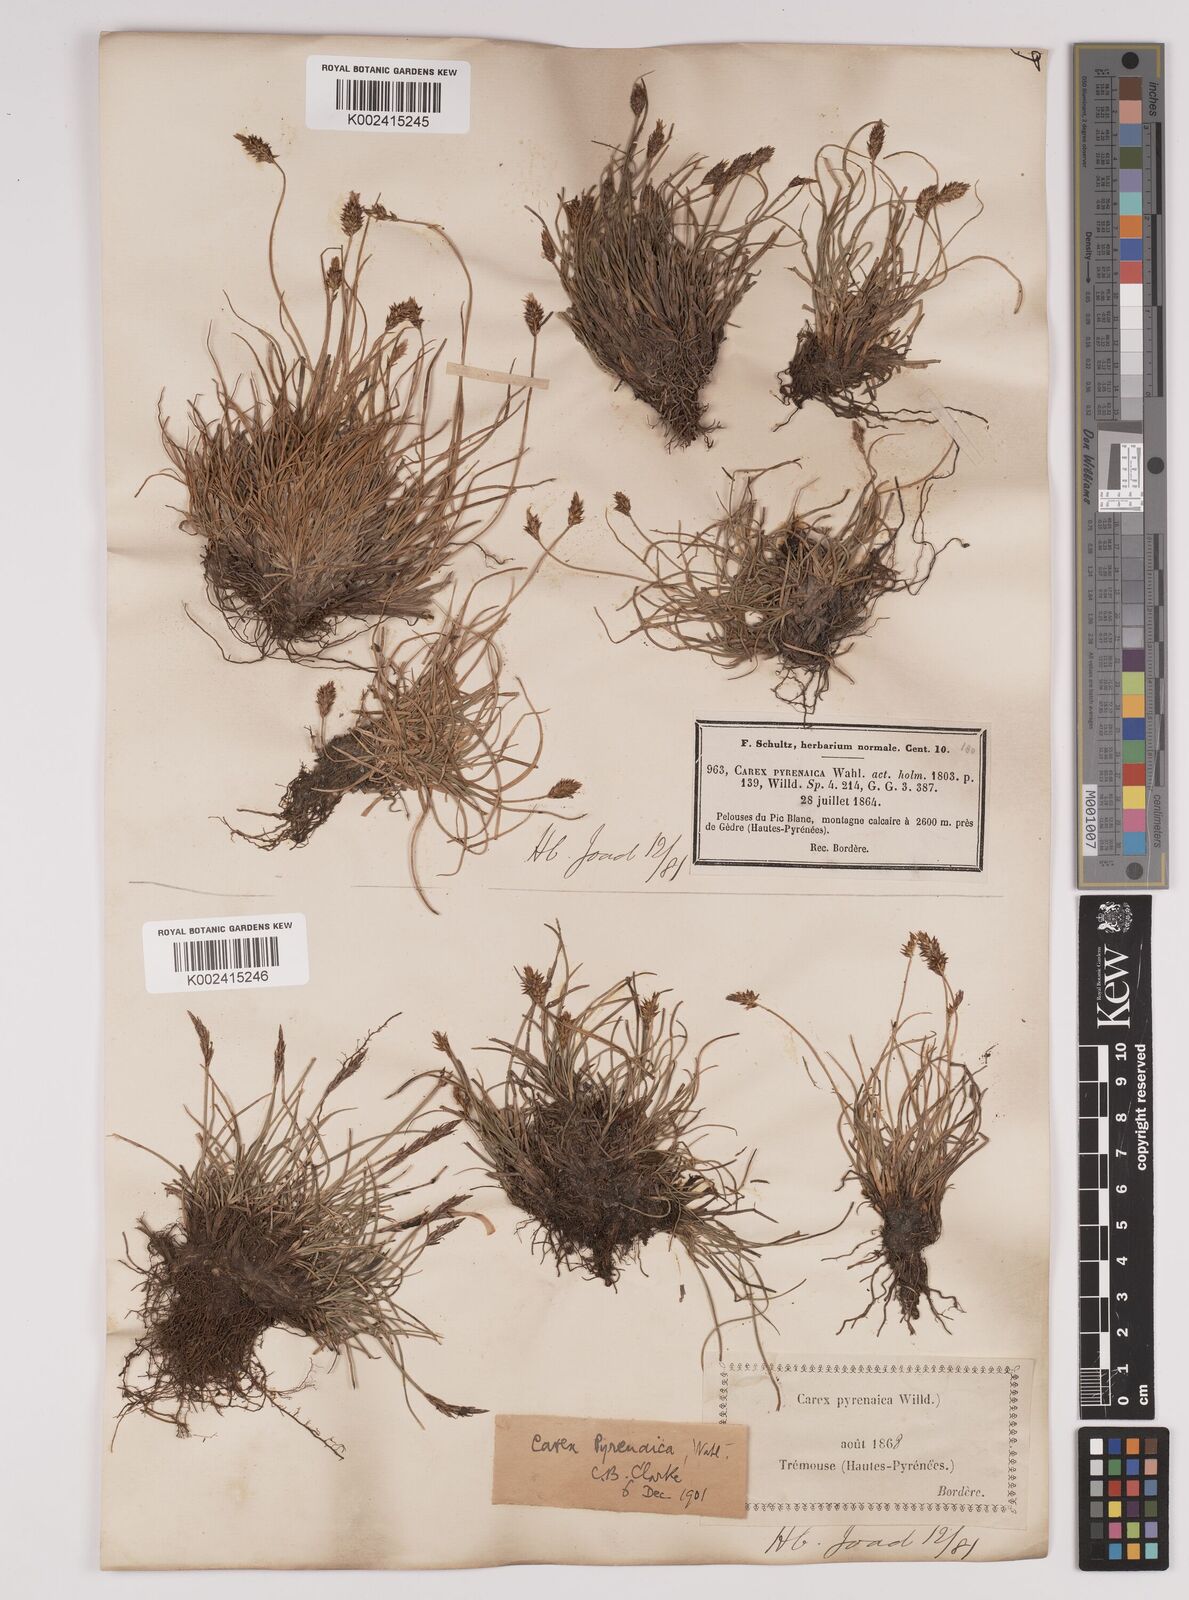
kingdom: Plantae
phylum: Tracheophyta
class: Liliopsida
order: Poales
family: Cyperaceae
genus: Carex
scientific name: Carex acicularis
